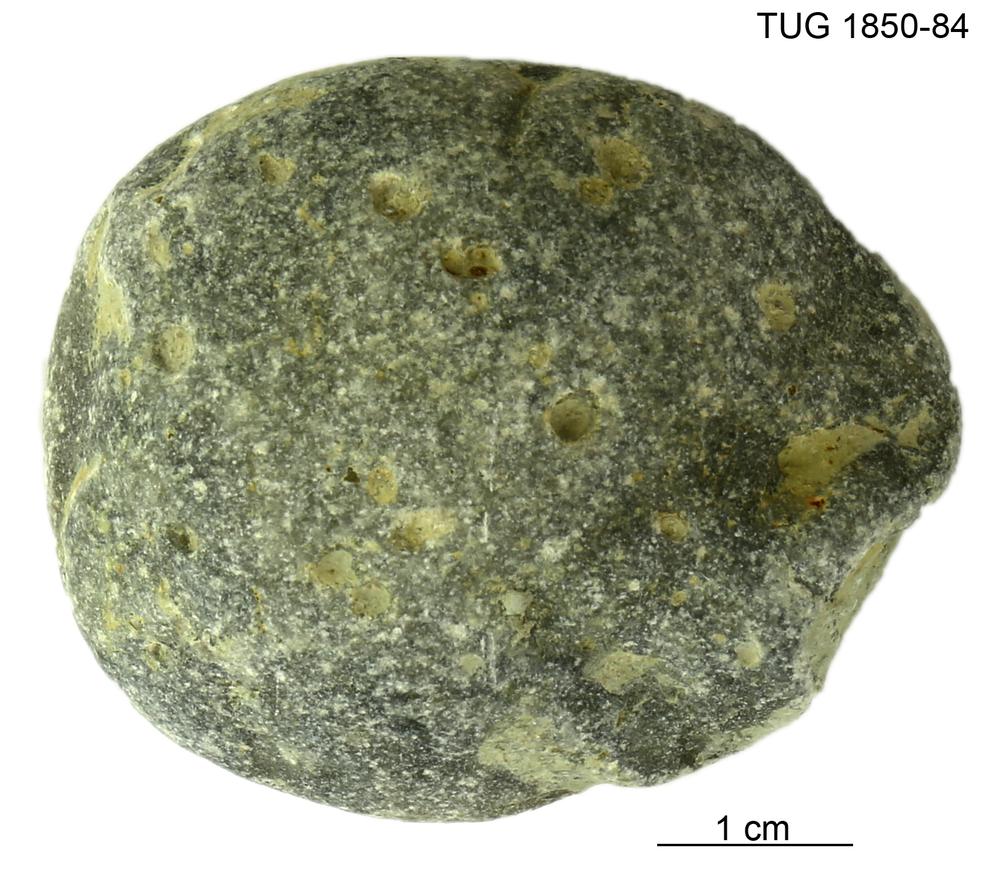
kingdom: Animalia
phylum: Porifera
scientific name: Porifera
